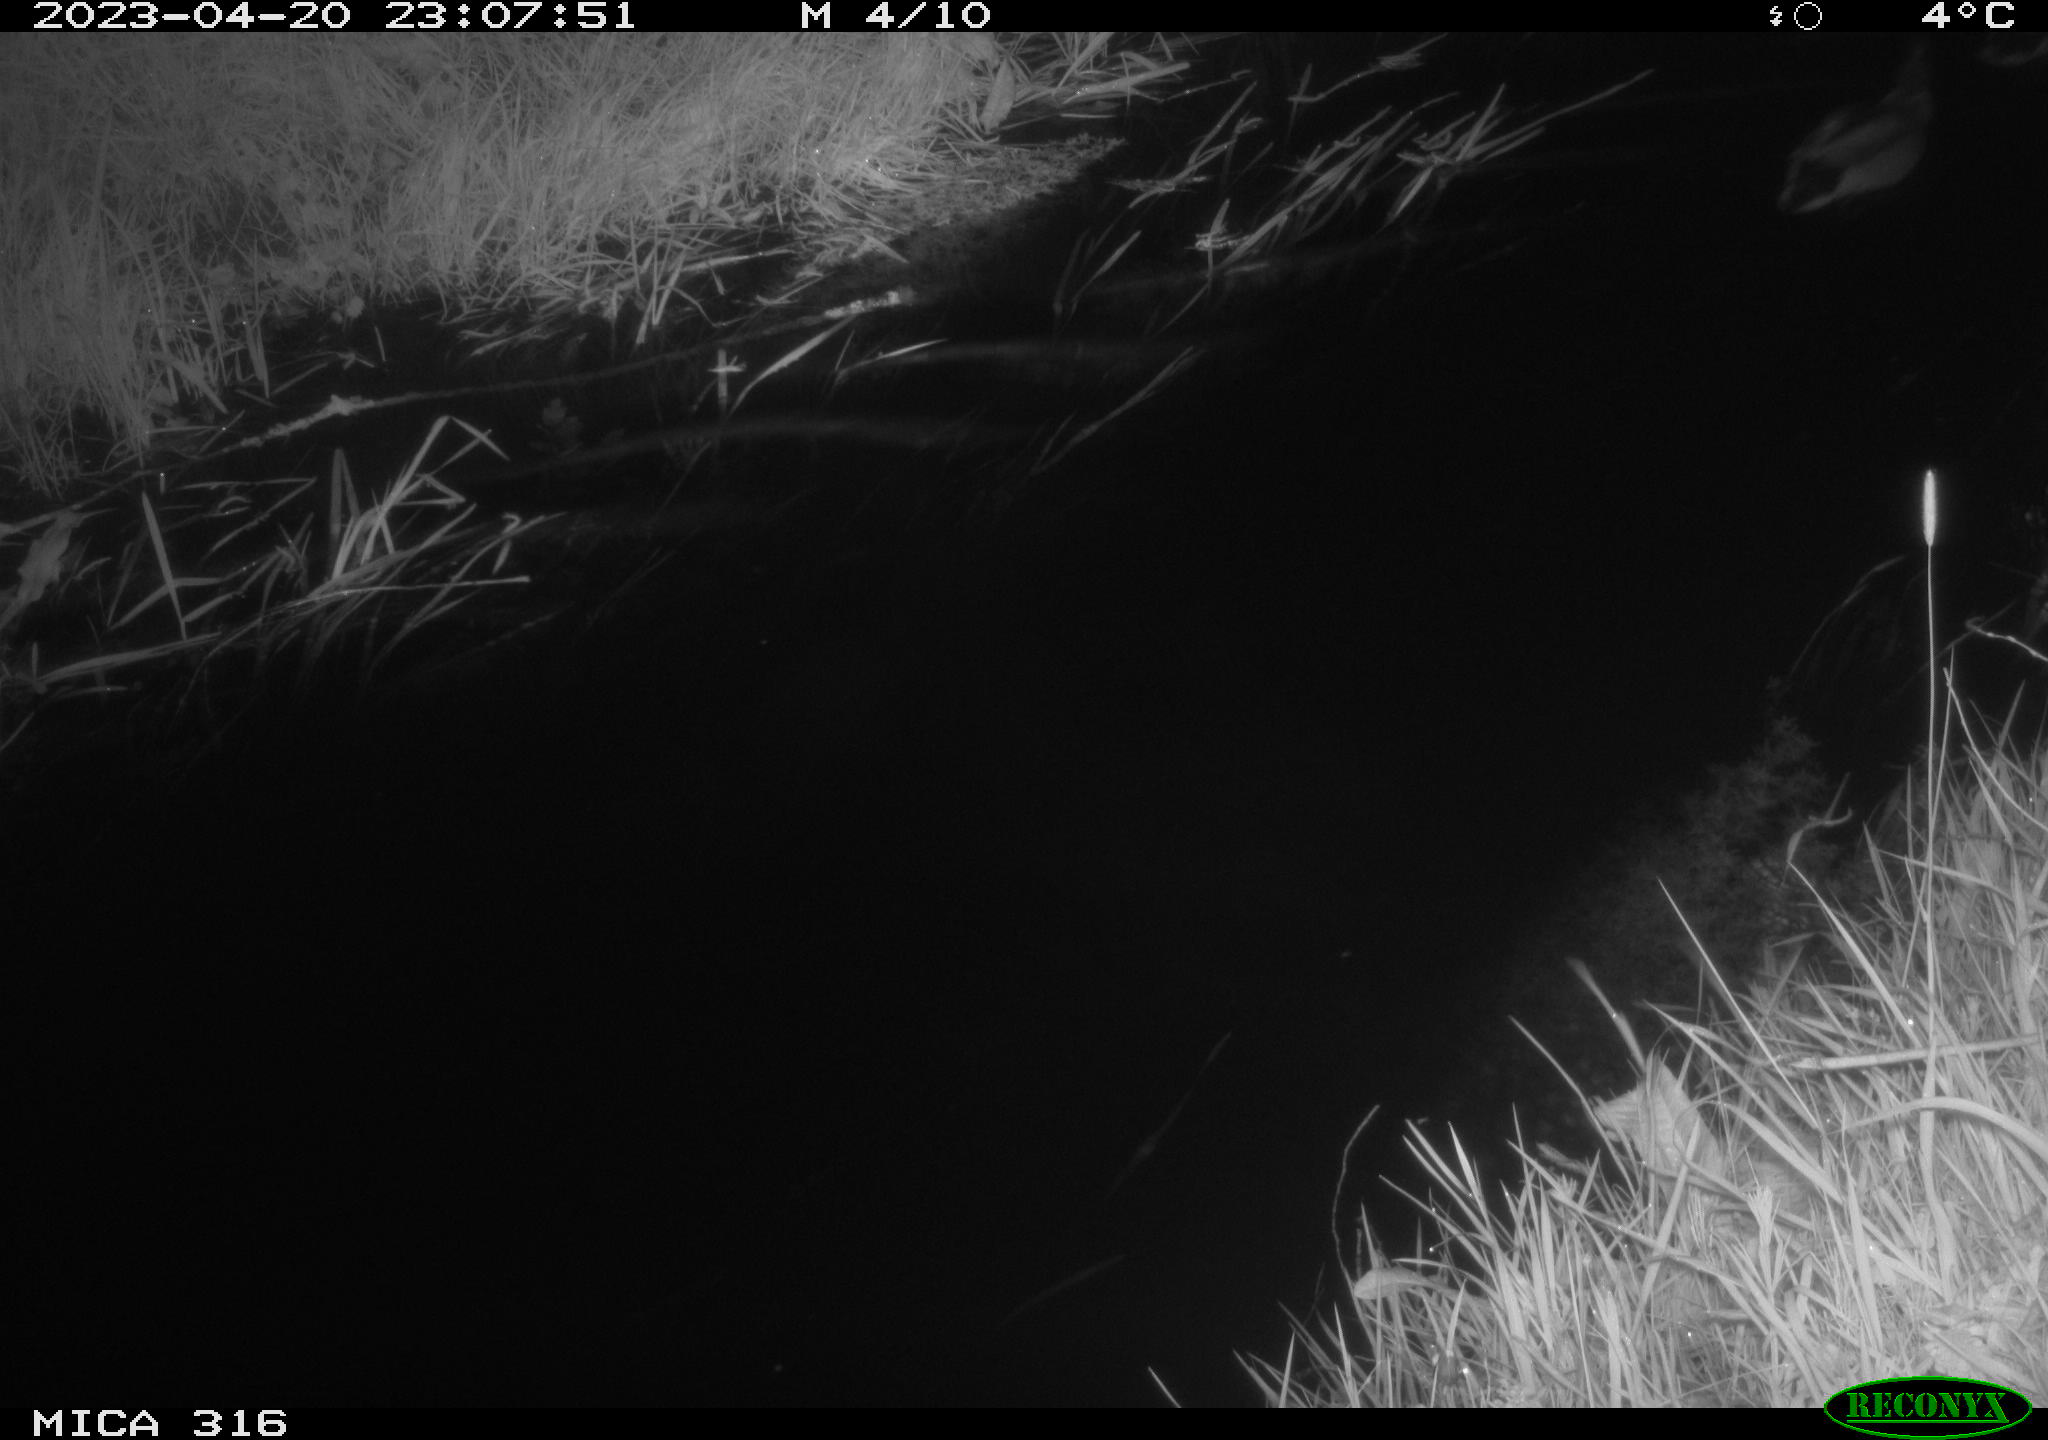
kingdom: Animalia
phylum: Chordata
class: Aves
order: Anseriformes
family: Anatidae
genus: Anas
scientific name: Anas
